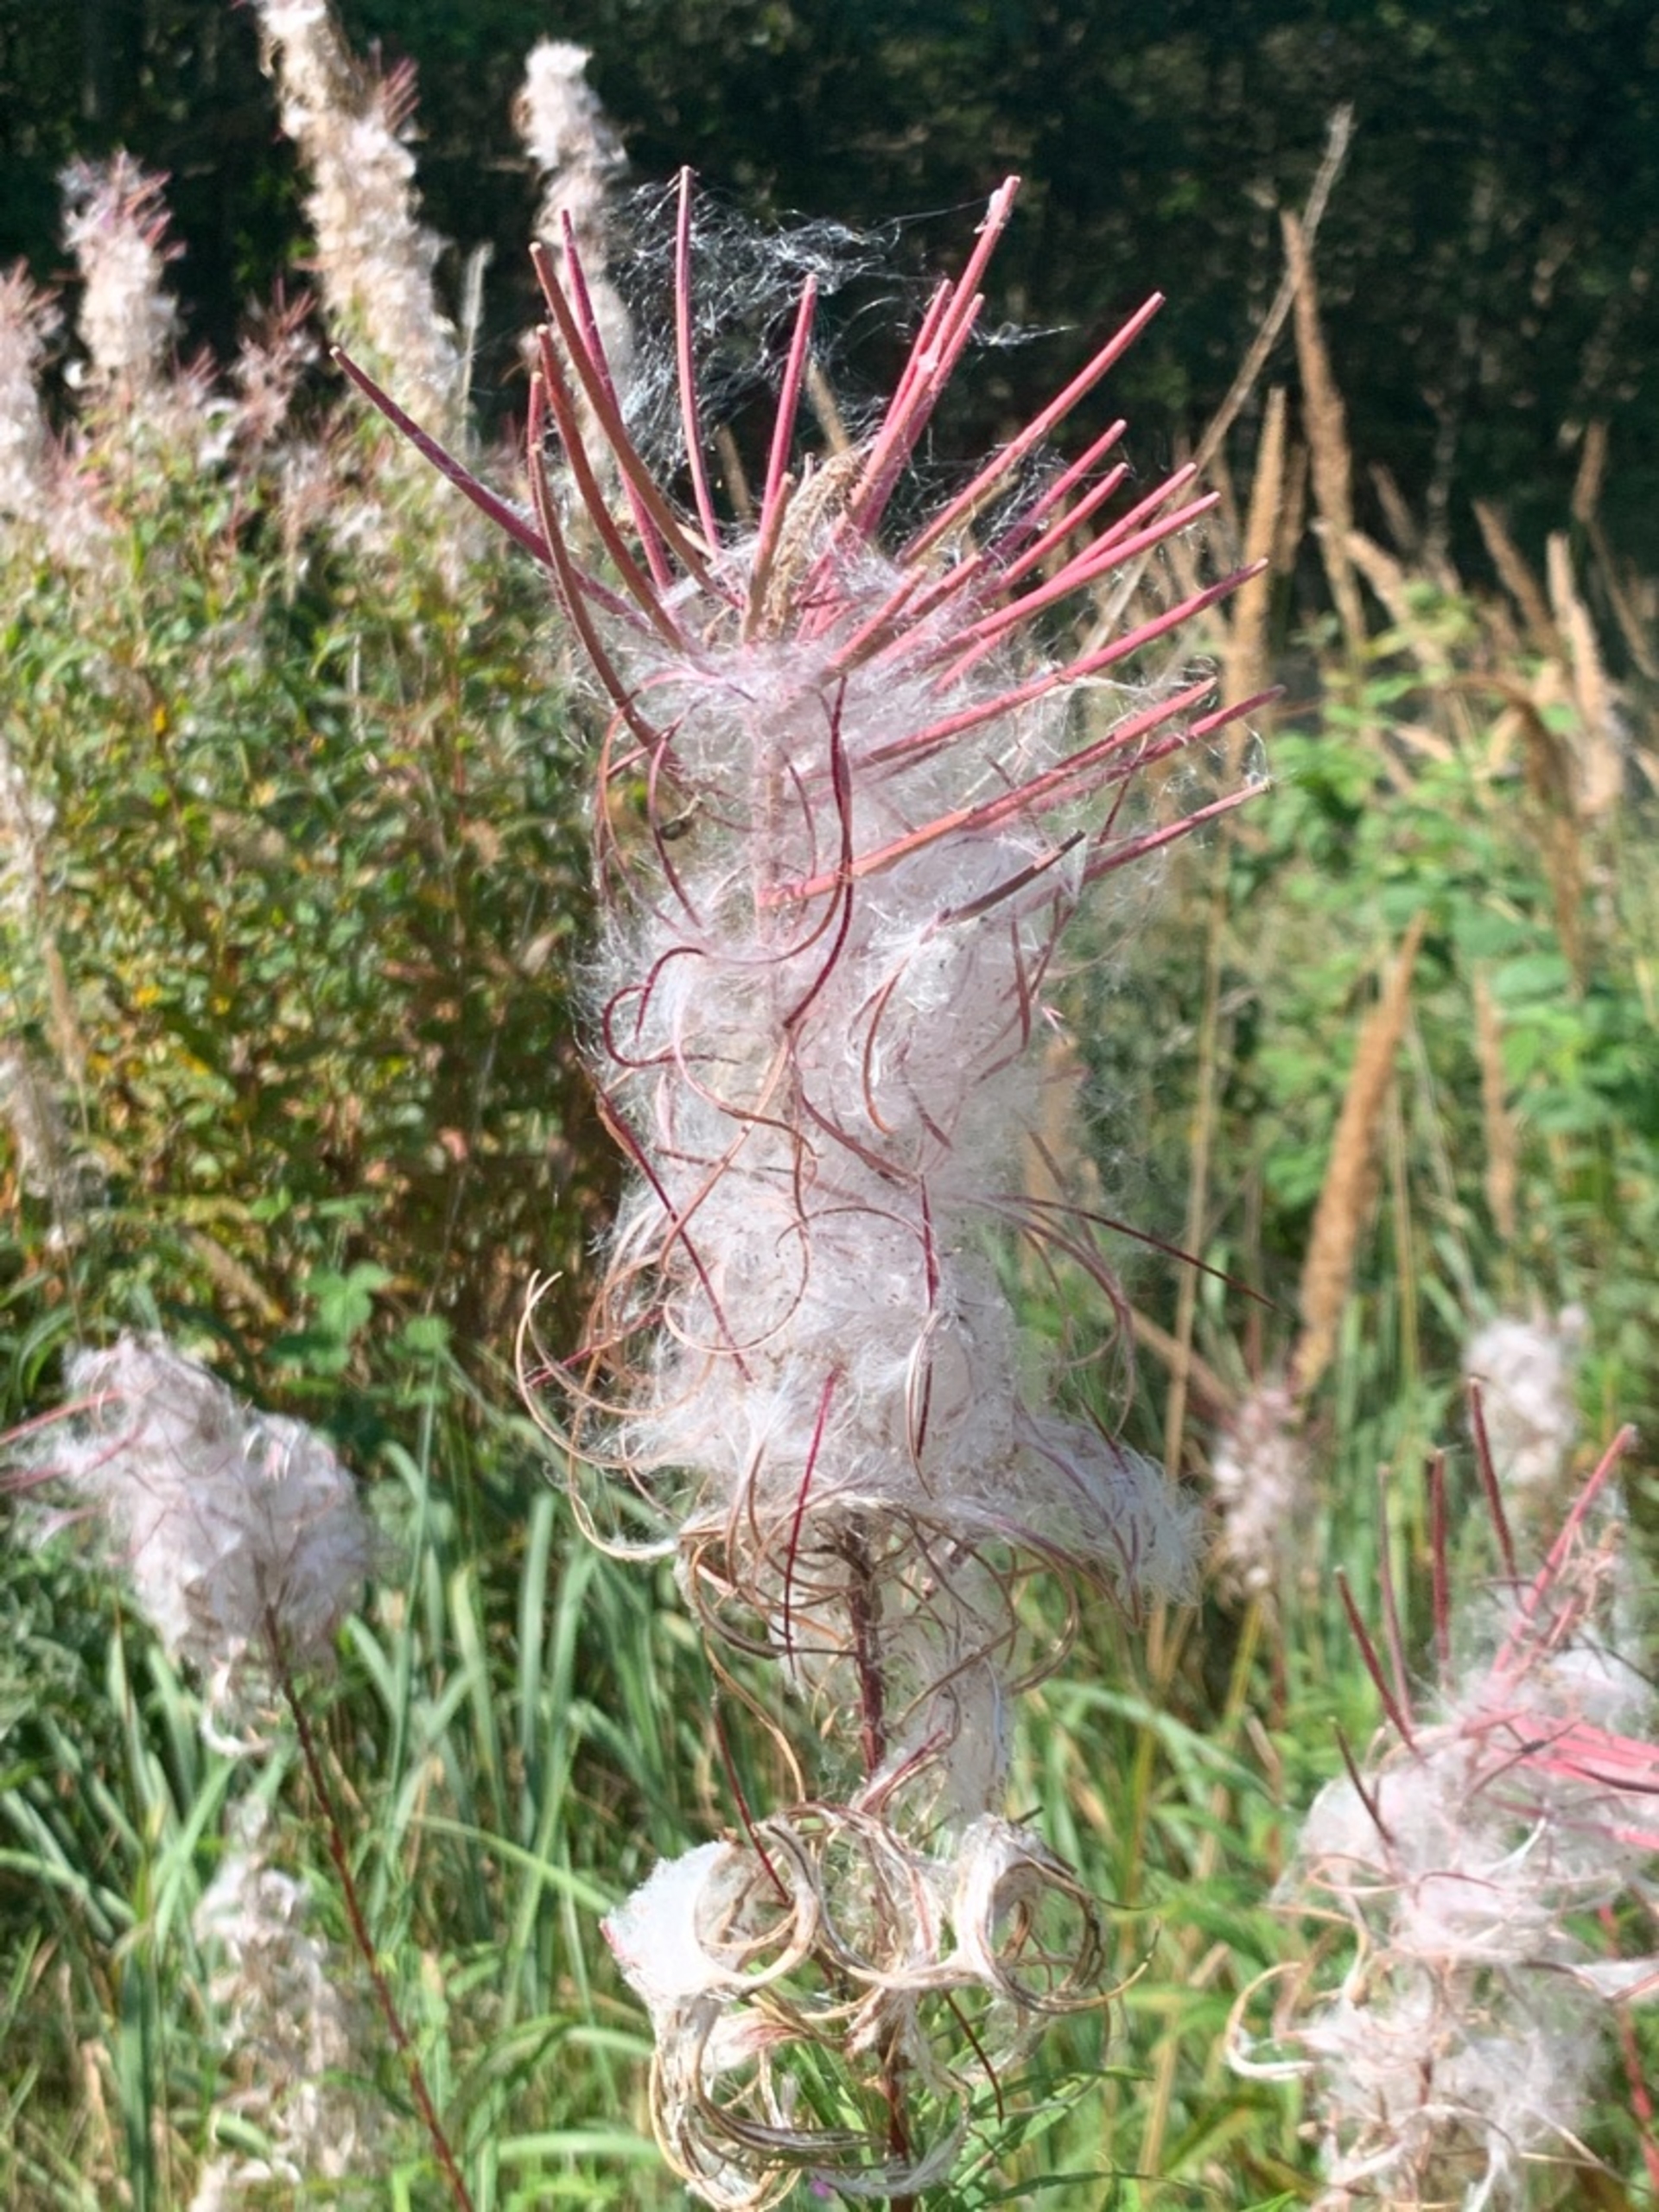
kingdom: Plantae
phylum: Tracheophyta
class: Magnoliopsida
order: Myrtales
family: Onagraceae
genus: Chamaenerion
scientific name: Chamaenerion angustifolium
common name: Gederams
